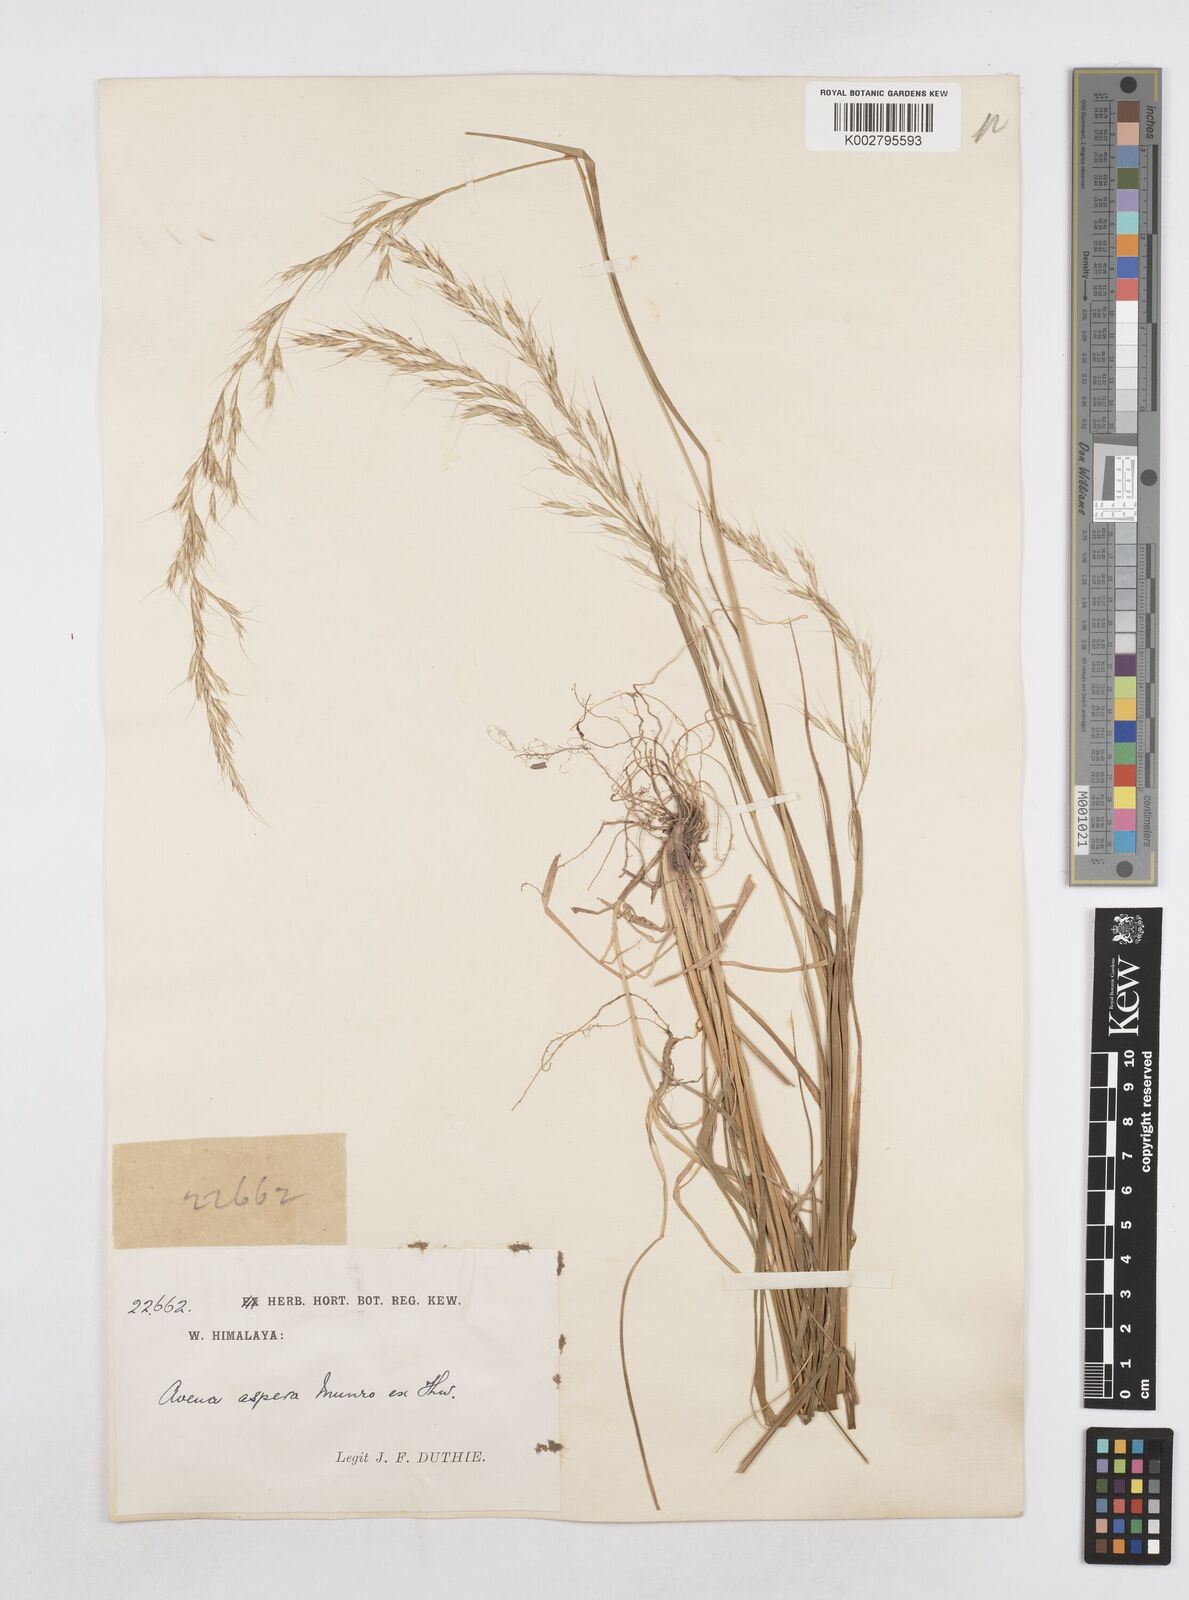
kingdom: Plantae
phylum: Tracheophyta
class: Liliopsida
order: Poales
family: Poaceae
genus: Helictotrichon
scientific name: Helictotrichon
